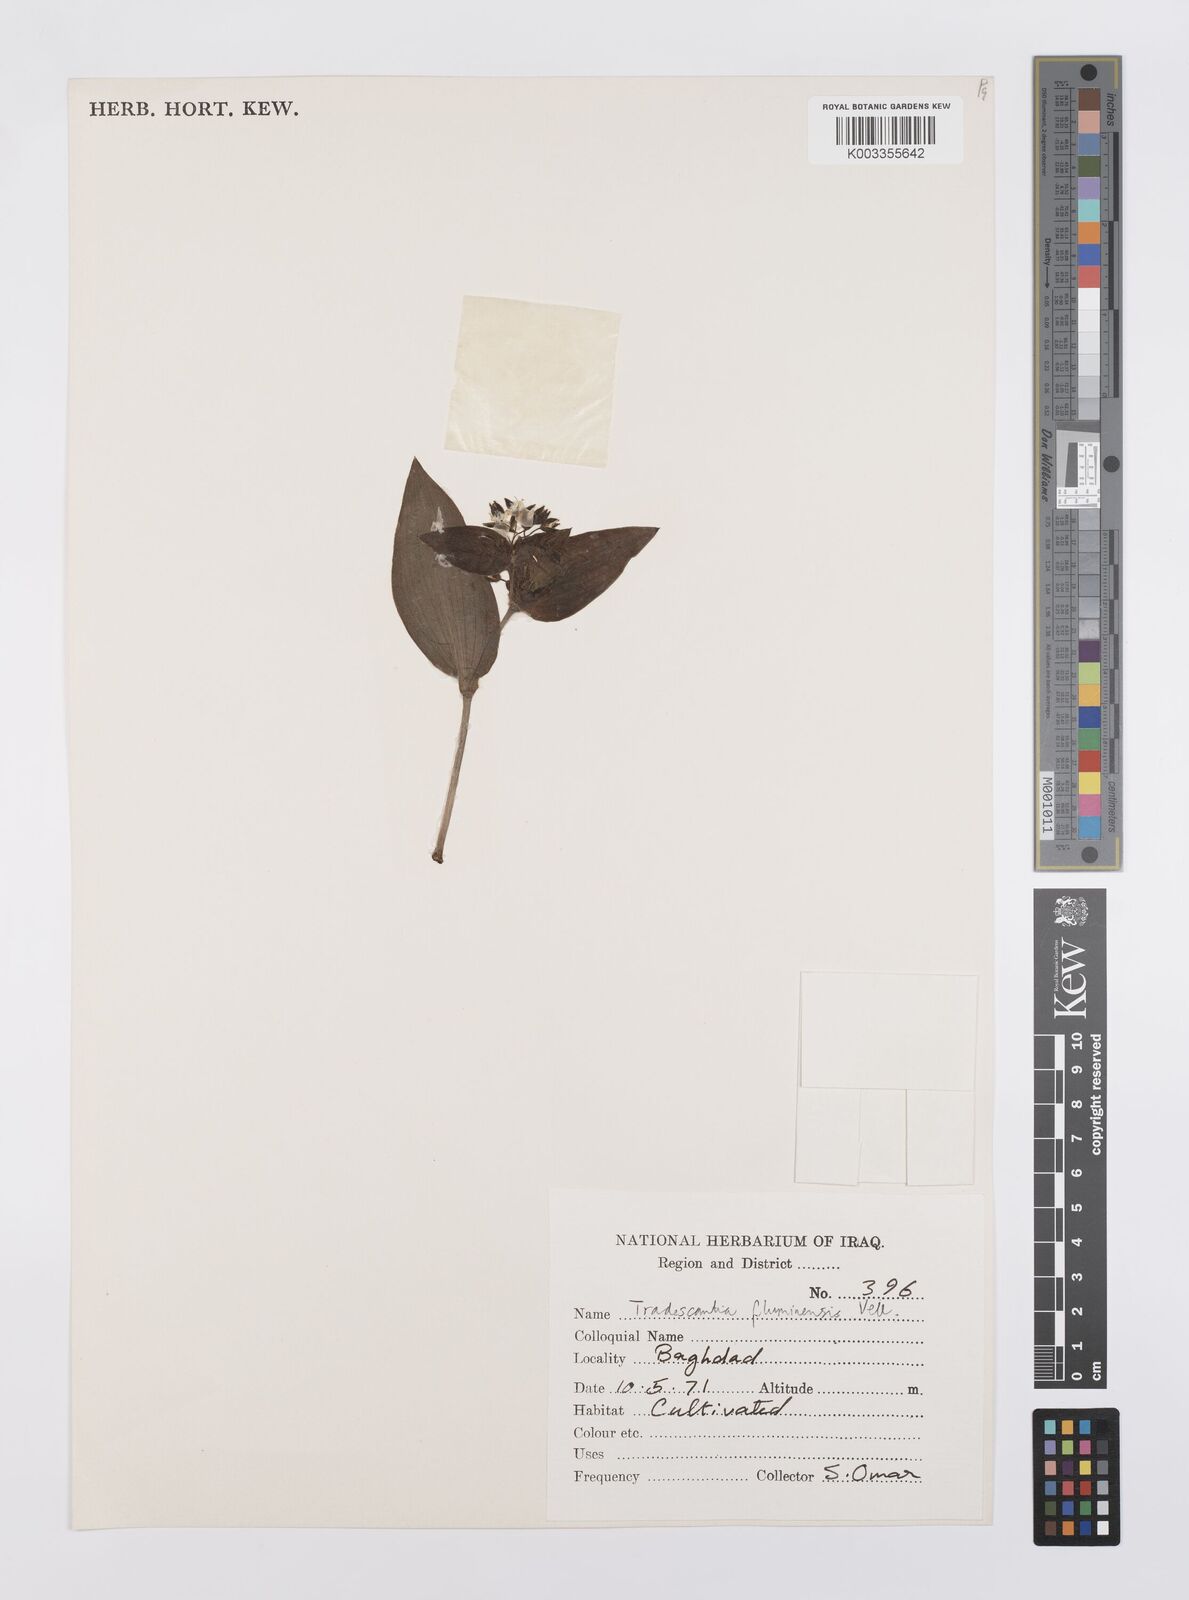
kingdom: Plantae
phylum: Tracheophyta
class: Liliopsida
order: Commelinales
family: Commelinaceae
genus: Tradescantia
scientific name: Tradescantia fluminensis
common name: Wandering-jew
